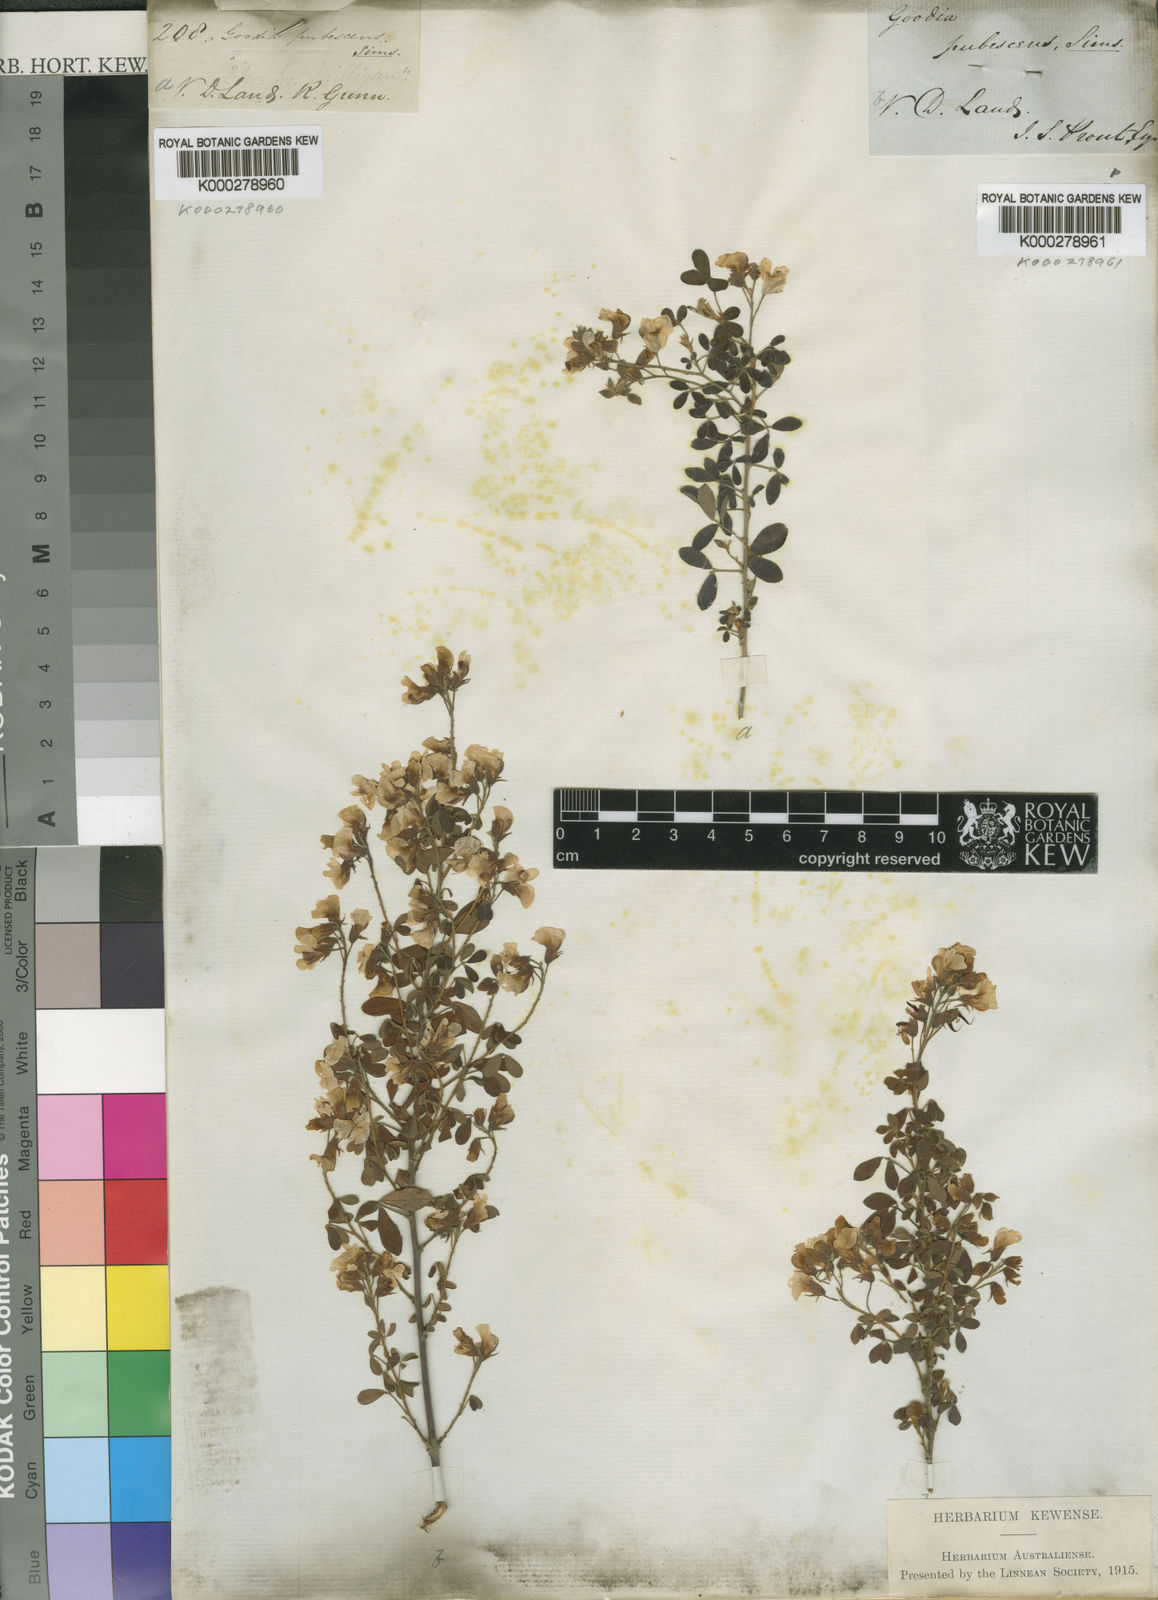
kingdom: Plantae
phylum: Tracheophyta
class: Magnoliopsida
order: Fabales
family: Fabaceae
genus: Goodia
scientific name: Goodia pubescens
